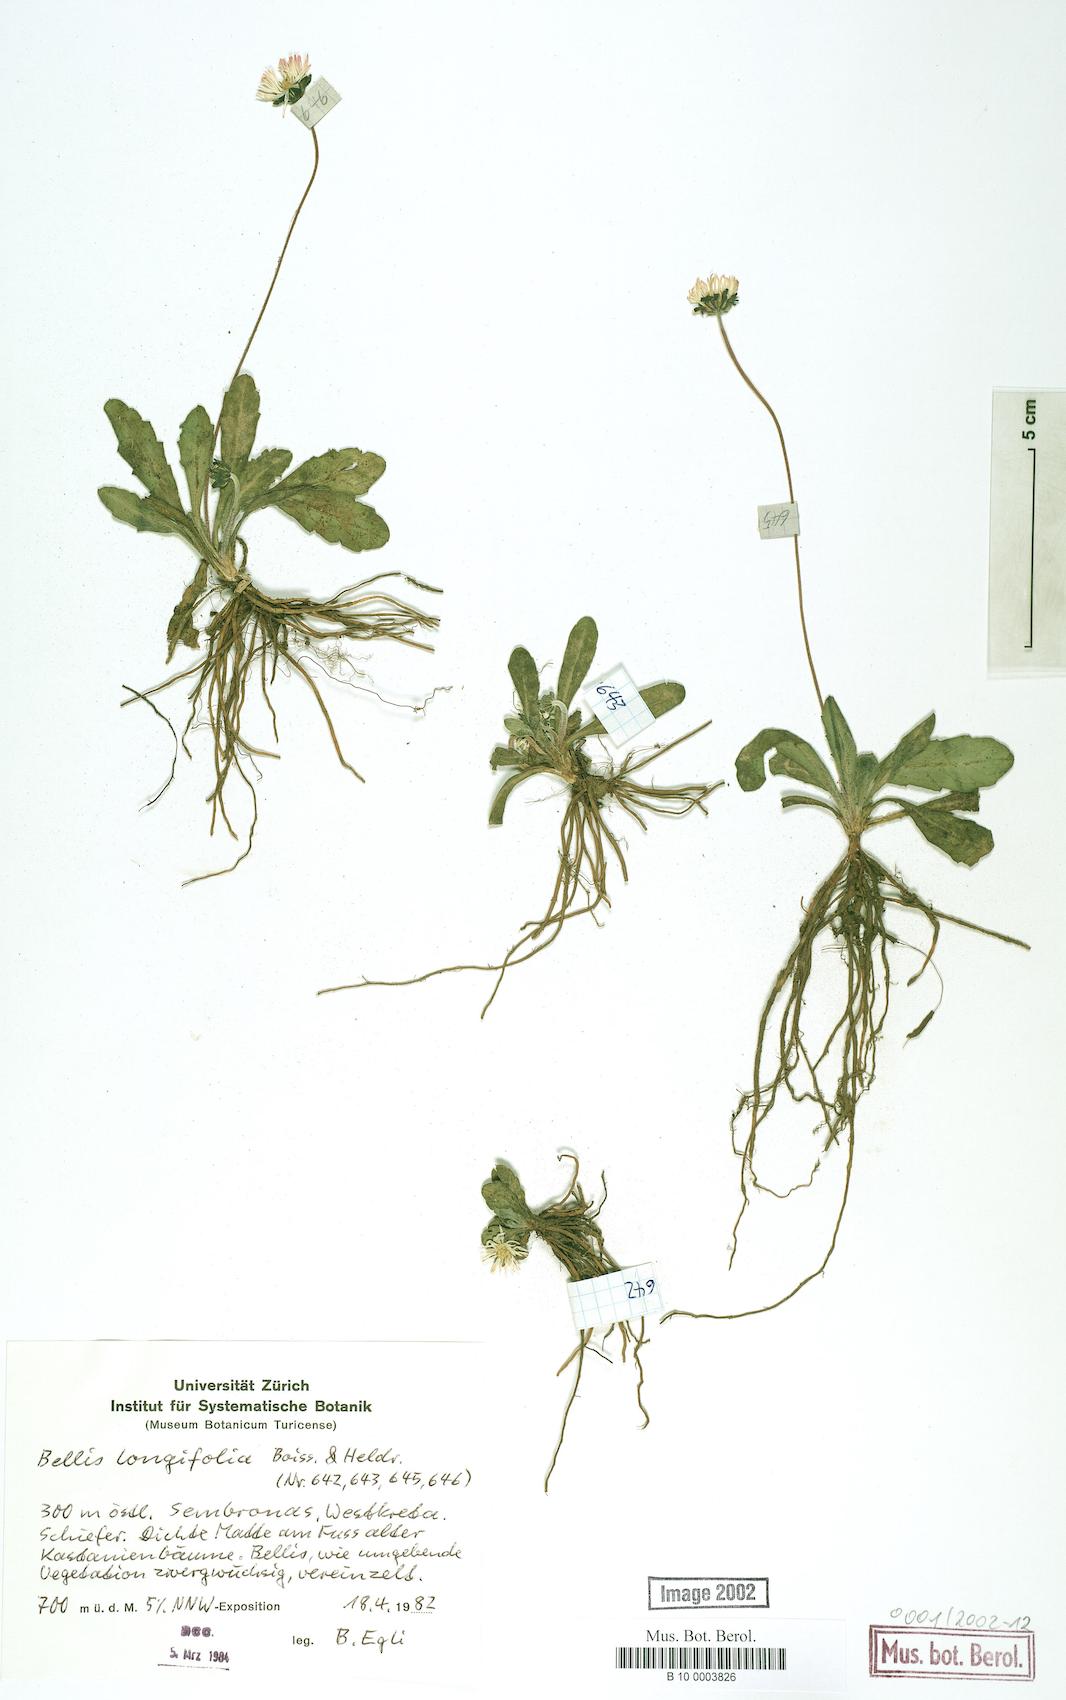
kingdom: Plantae
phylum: Tracheophyta
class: Magnoliopsida
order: Asterales
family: Asteraceae
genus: Bellis
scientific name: Bellis longifolia
